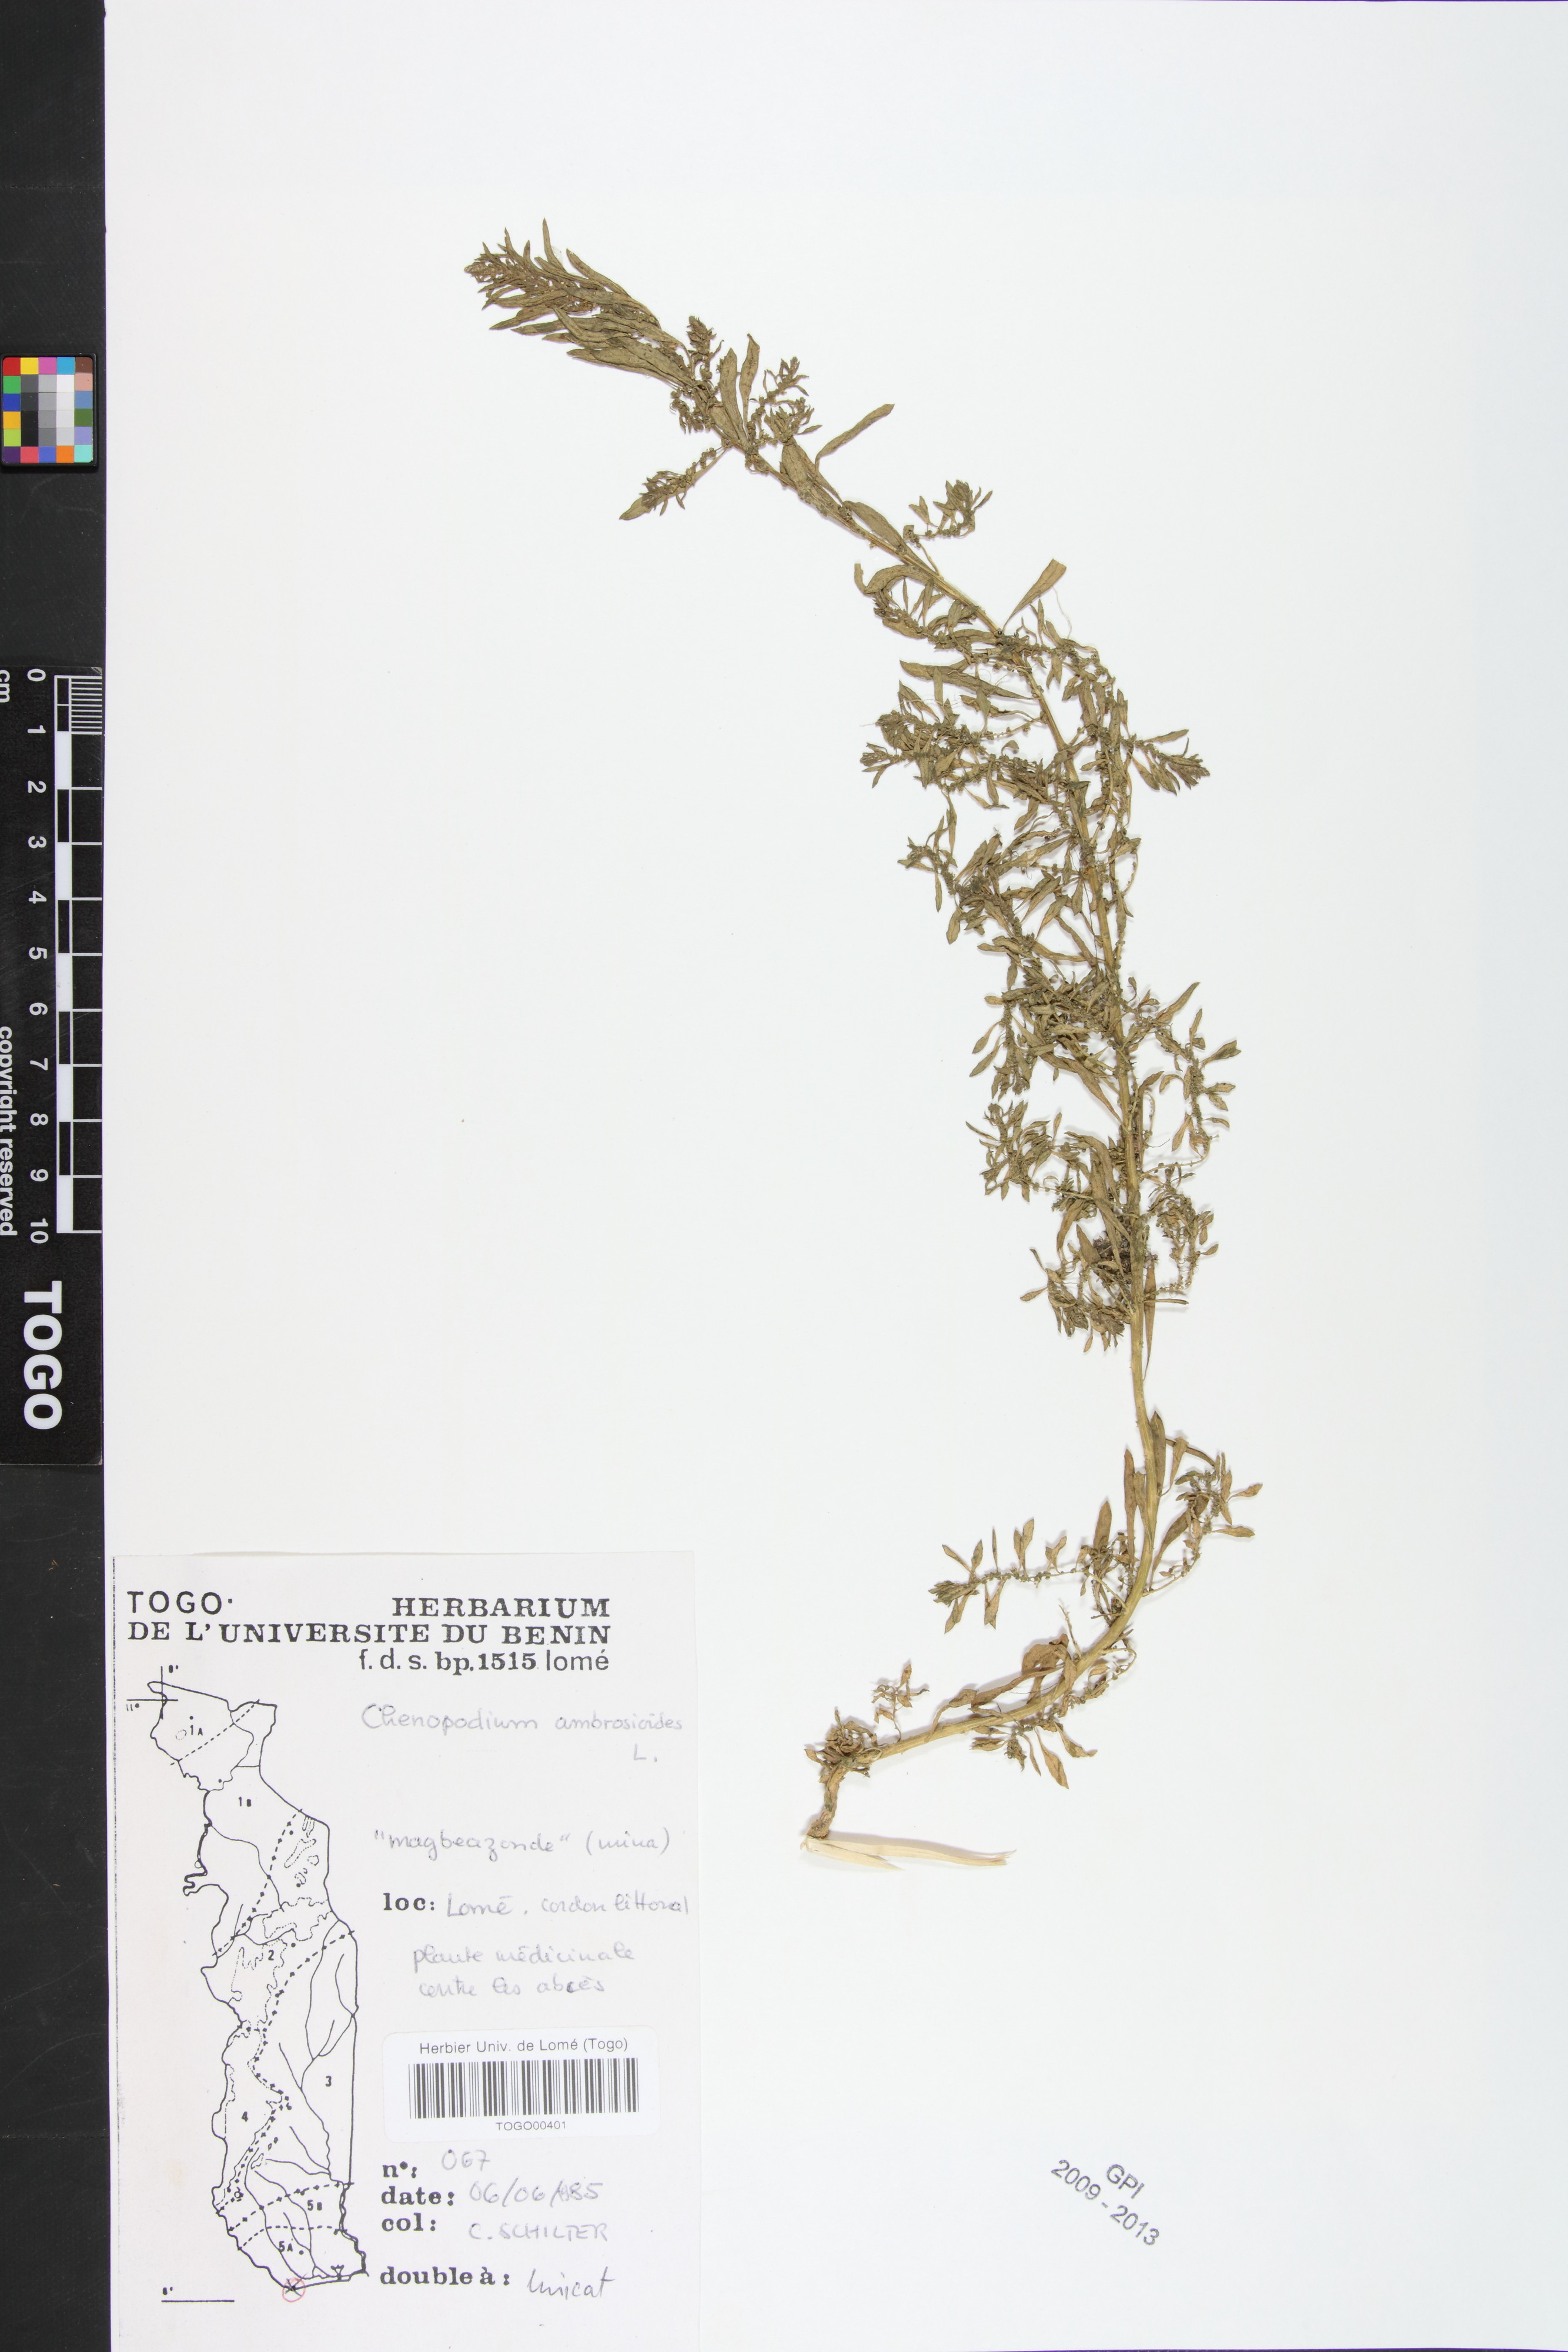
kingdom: Plantae
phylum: Tracheophyta
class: Magnoliopsida
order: Caryophyllales
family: Amaranthaceae
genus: Dysphania
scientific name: Dysphania ambrosioides
